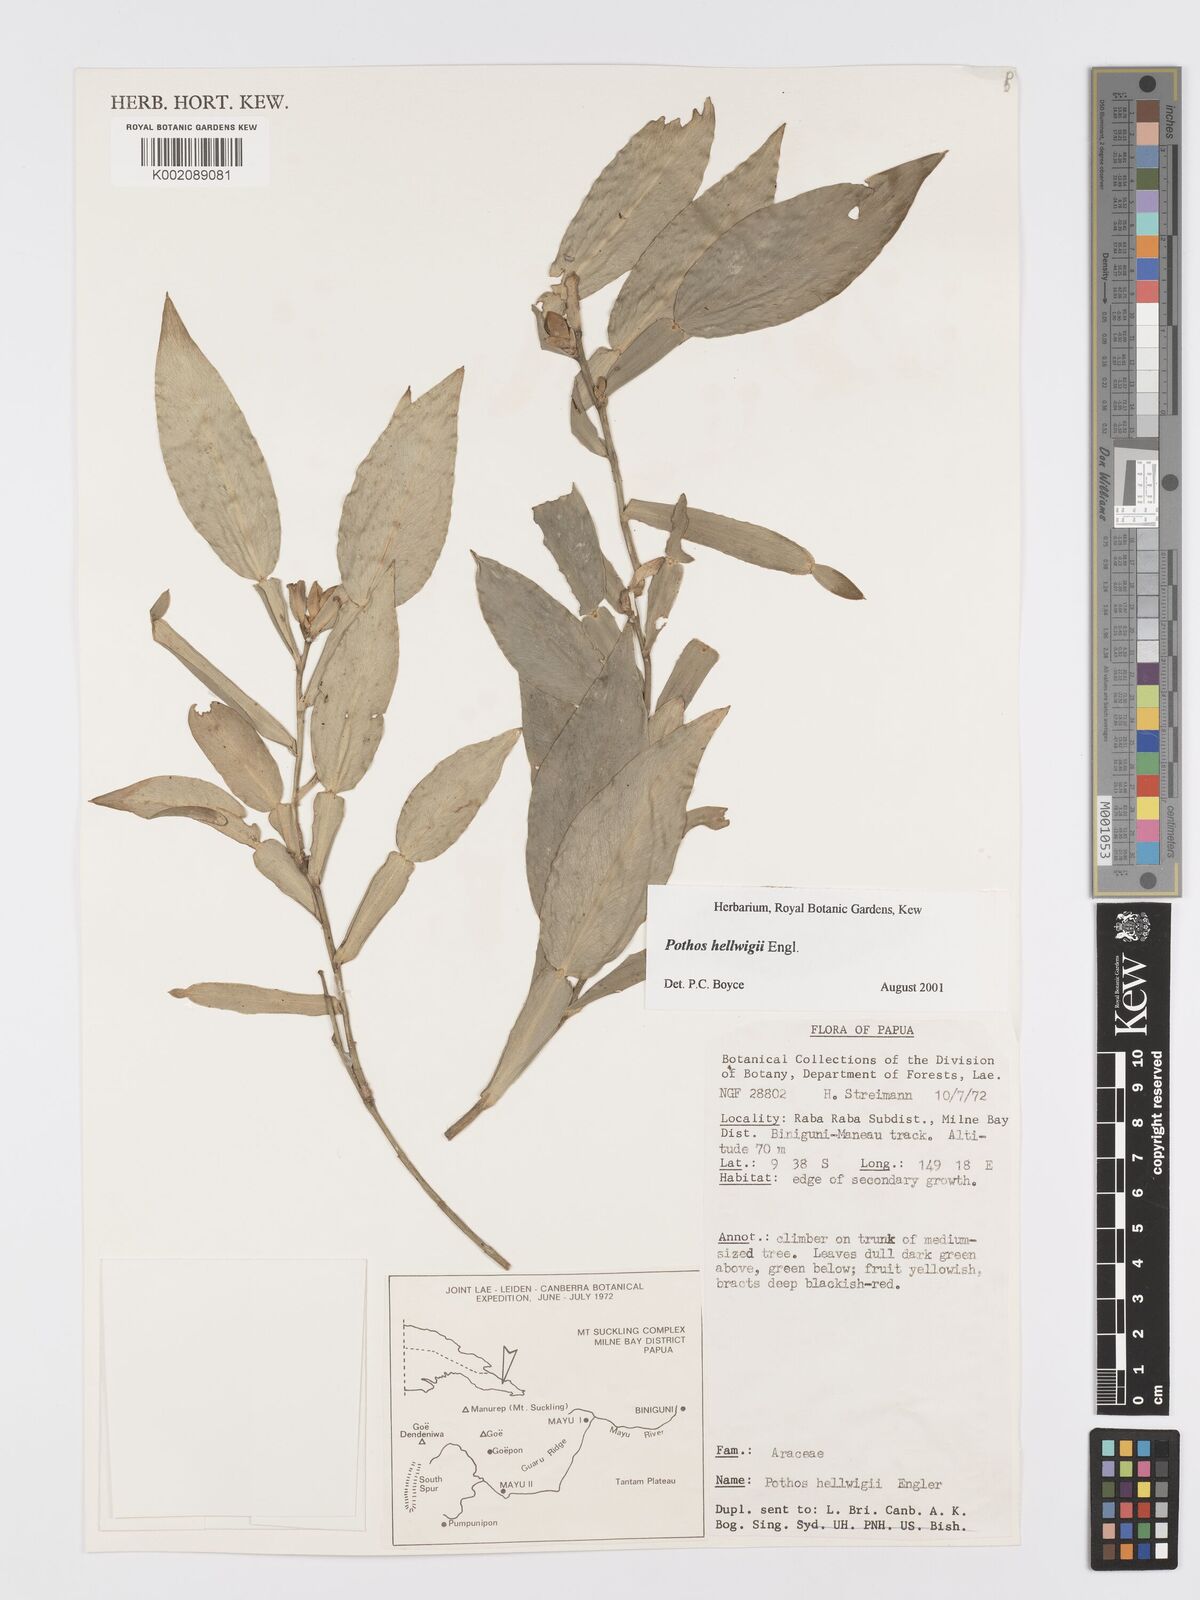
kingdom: Plantae
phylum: Tracheophyta
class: Liliopsida
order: Alismatales
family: Araceae
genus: Pothos
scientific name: Pothos hellwigii
